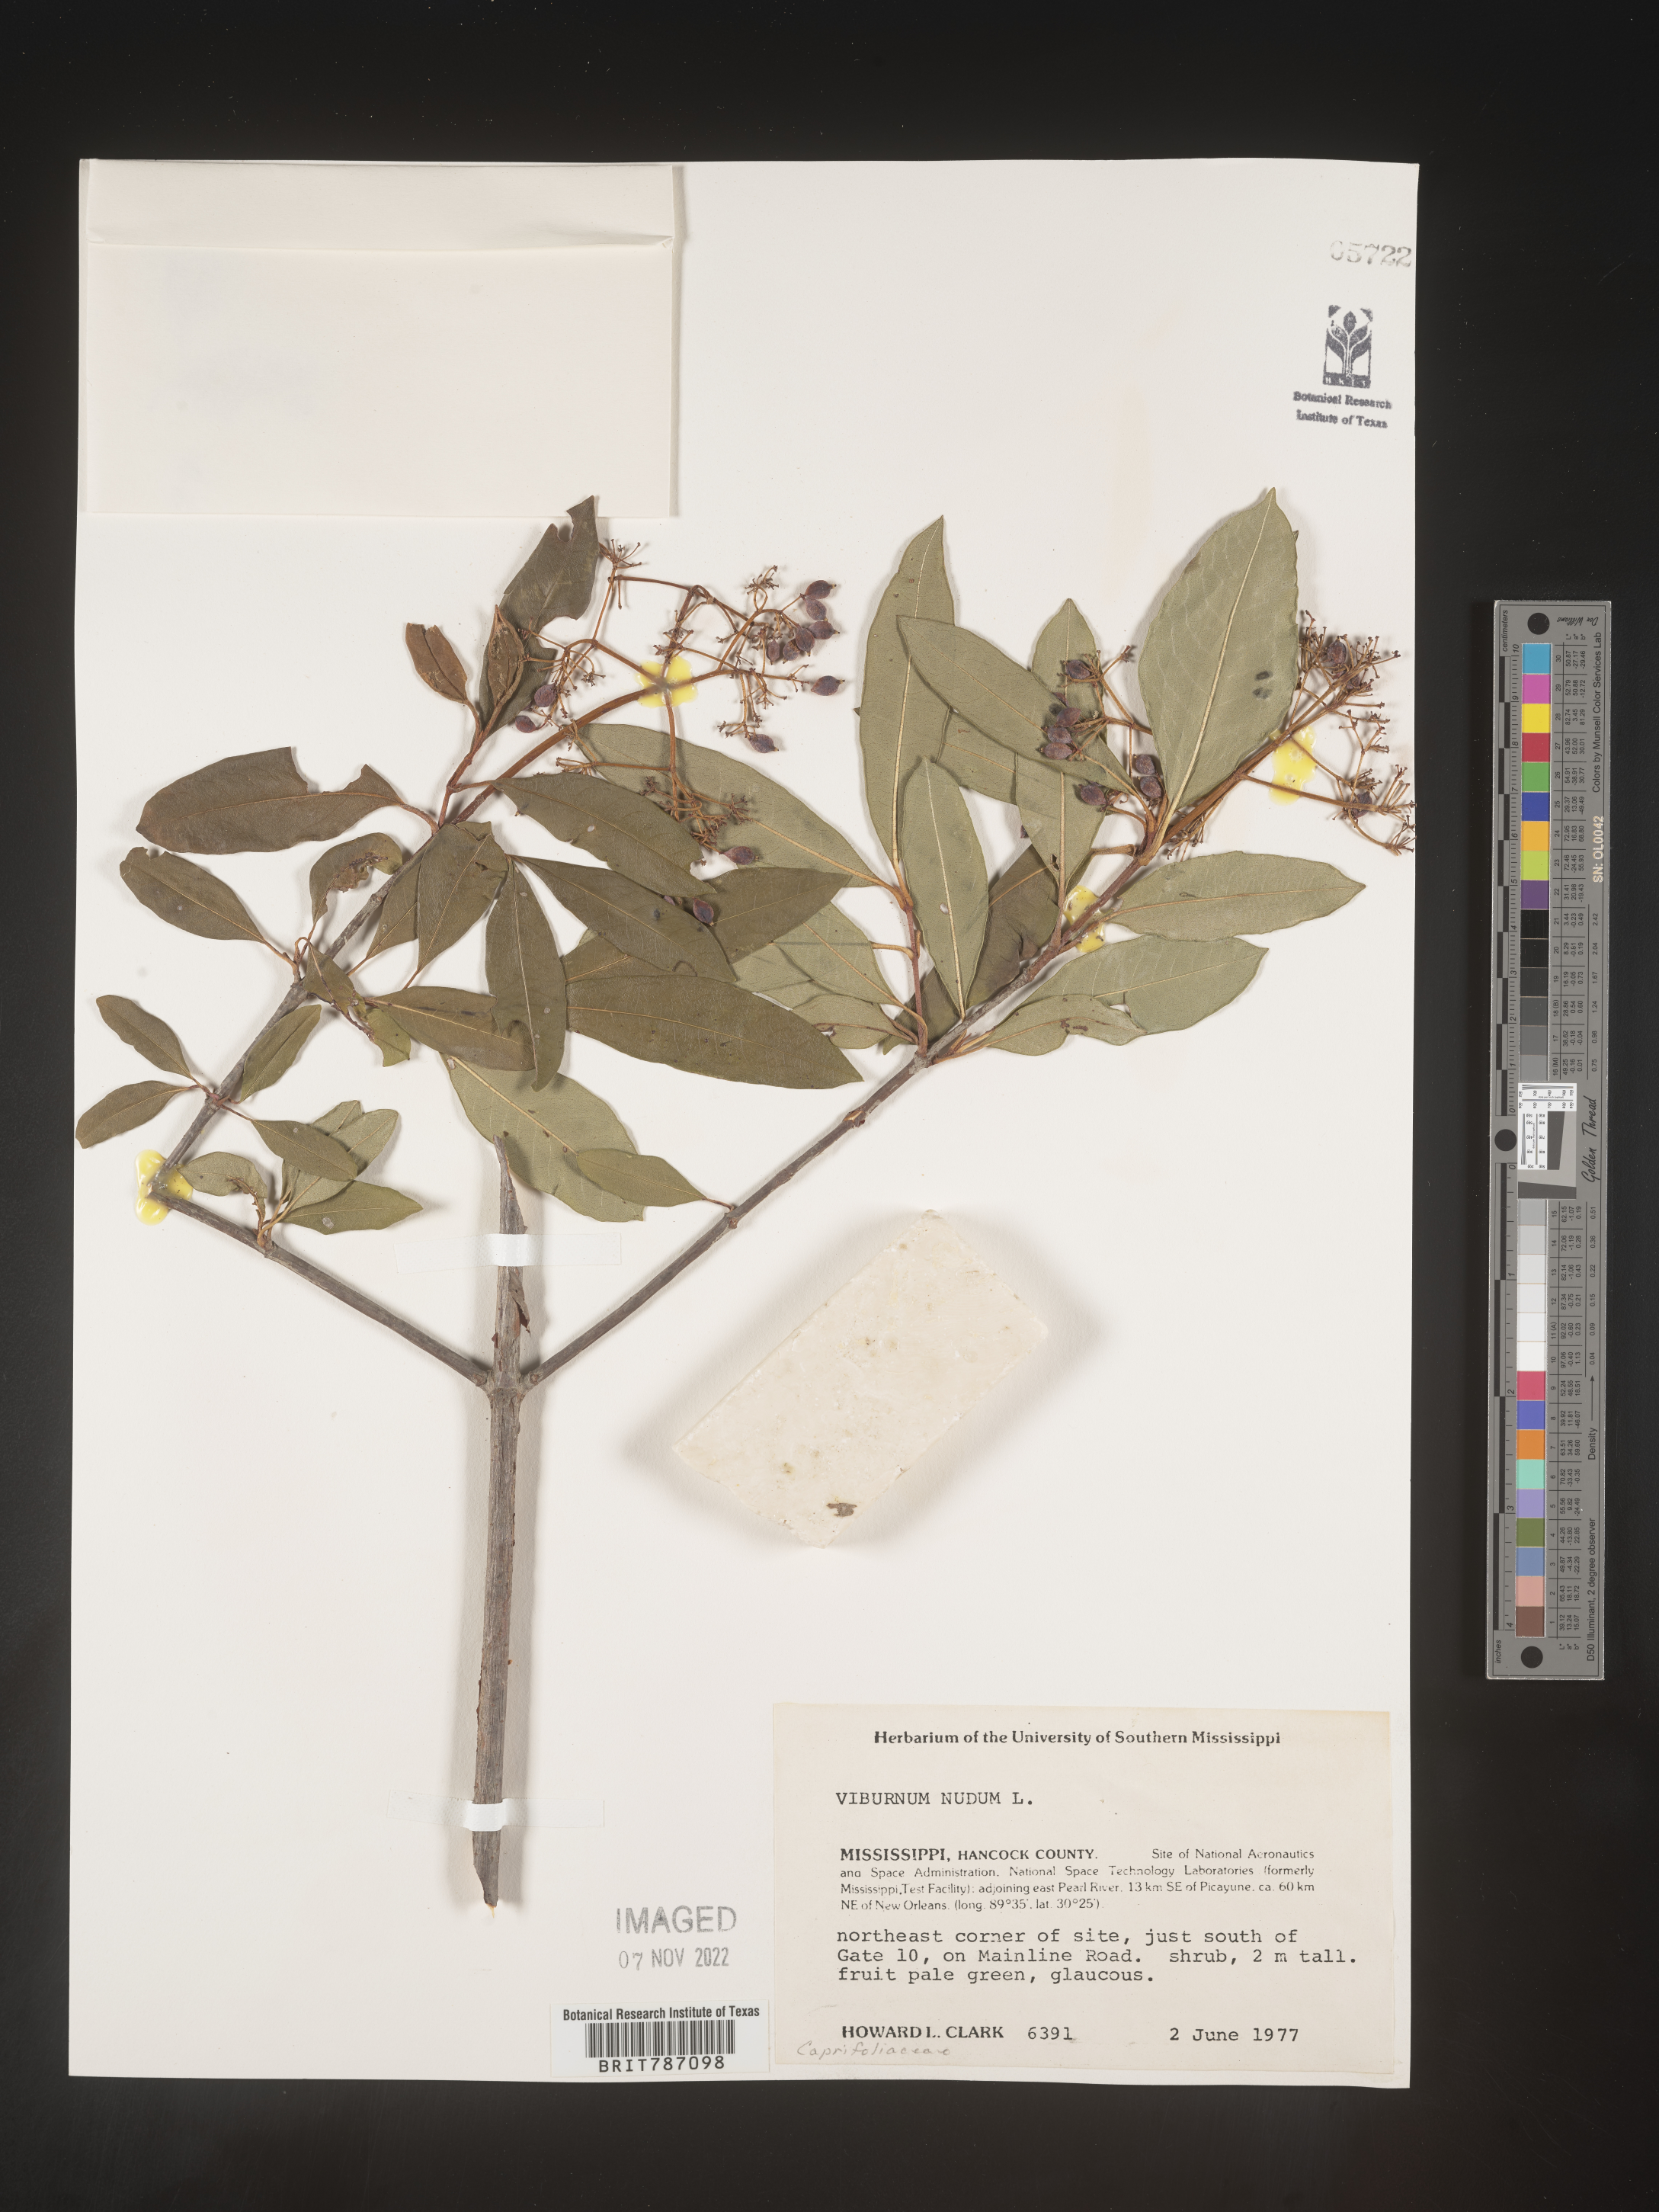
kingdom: Plantae
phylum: Tracheophyta
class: Magnoliopsida
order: Dipsacales
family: Viburnaceae
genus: Viburnum
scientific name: Viburnum nudum
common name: Possum haw
